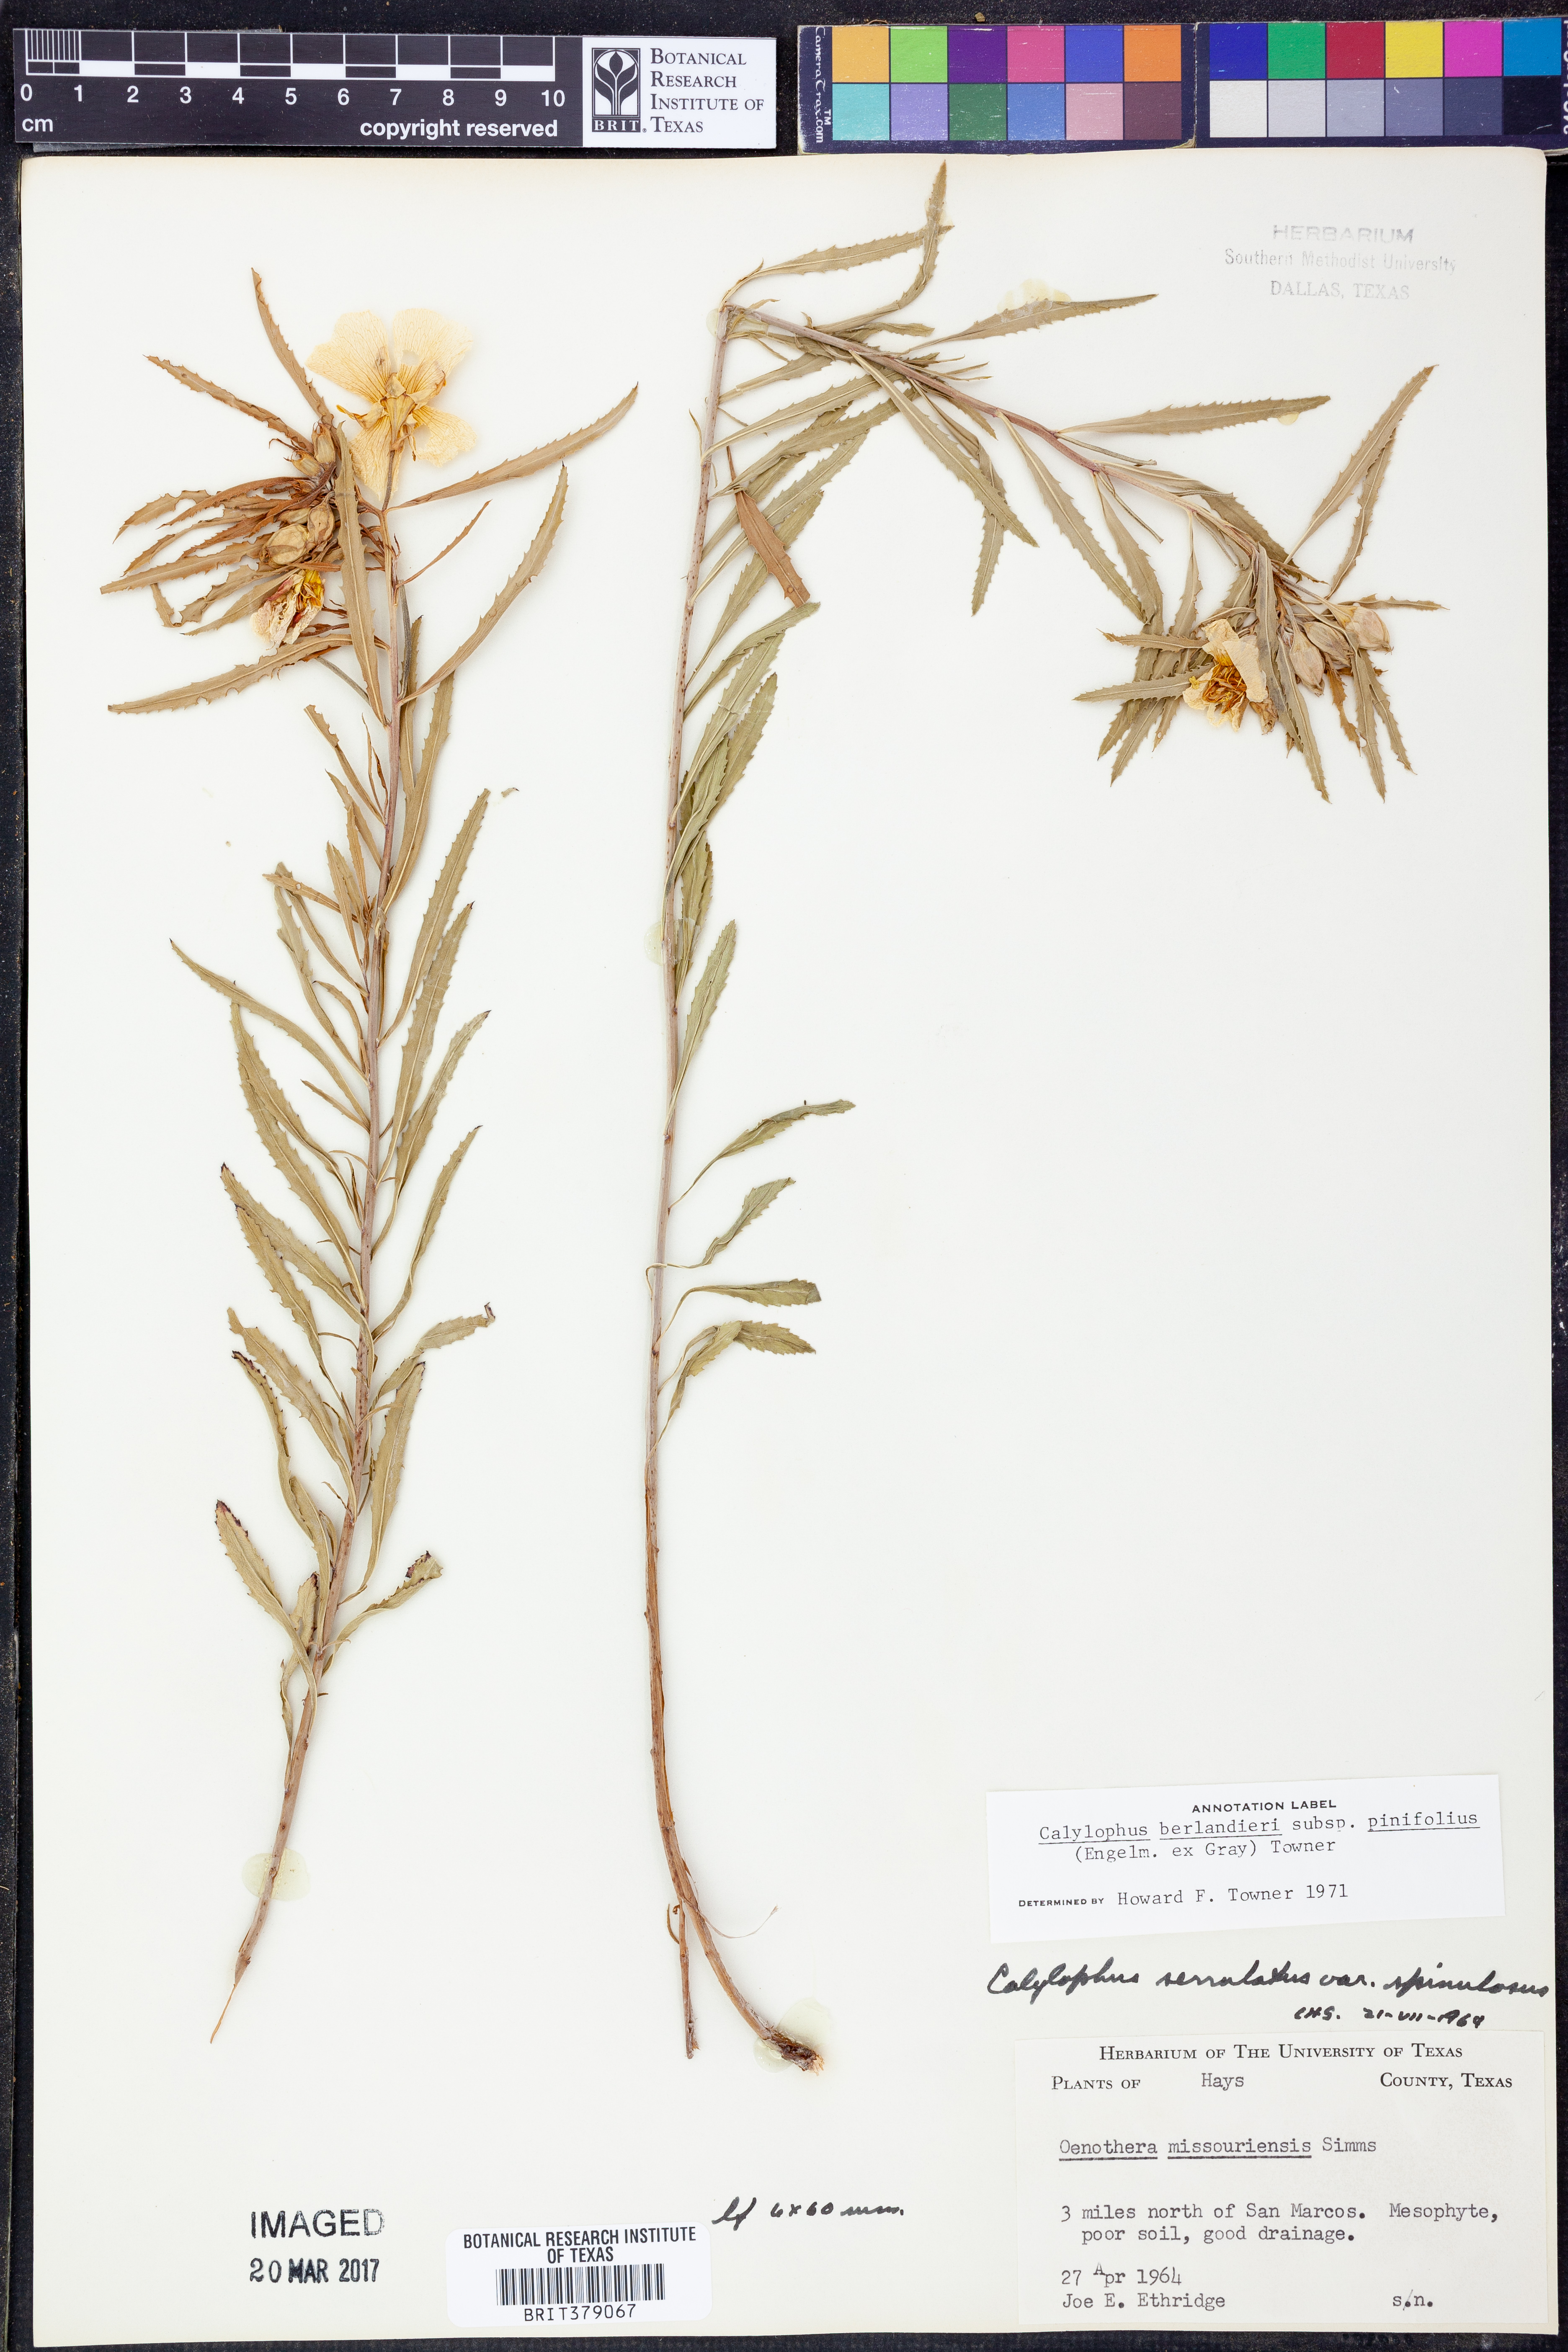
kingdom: Plantae
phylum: Tracheophyta
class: Magnoliopsida
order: Myrtales
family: Onagraceae
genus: Oenothera
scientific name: Oenothera capillifolia
